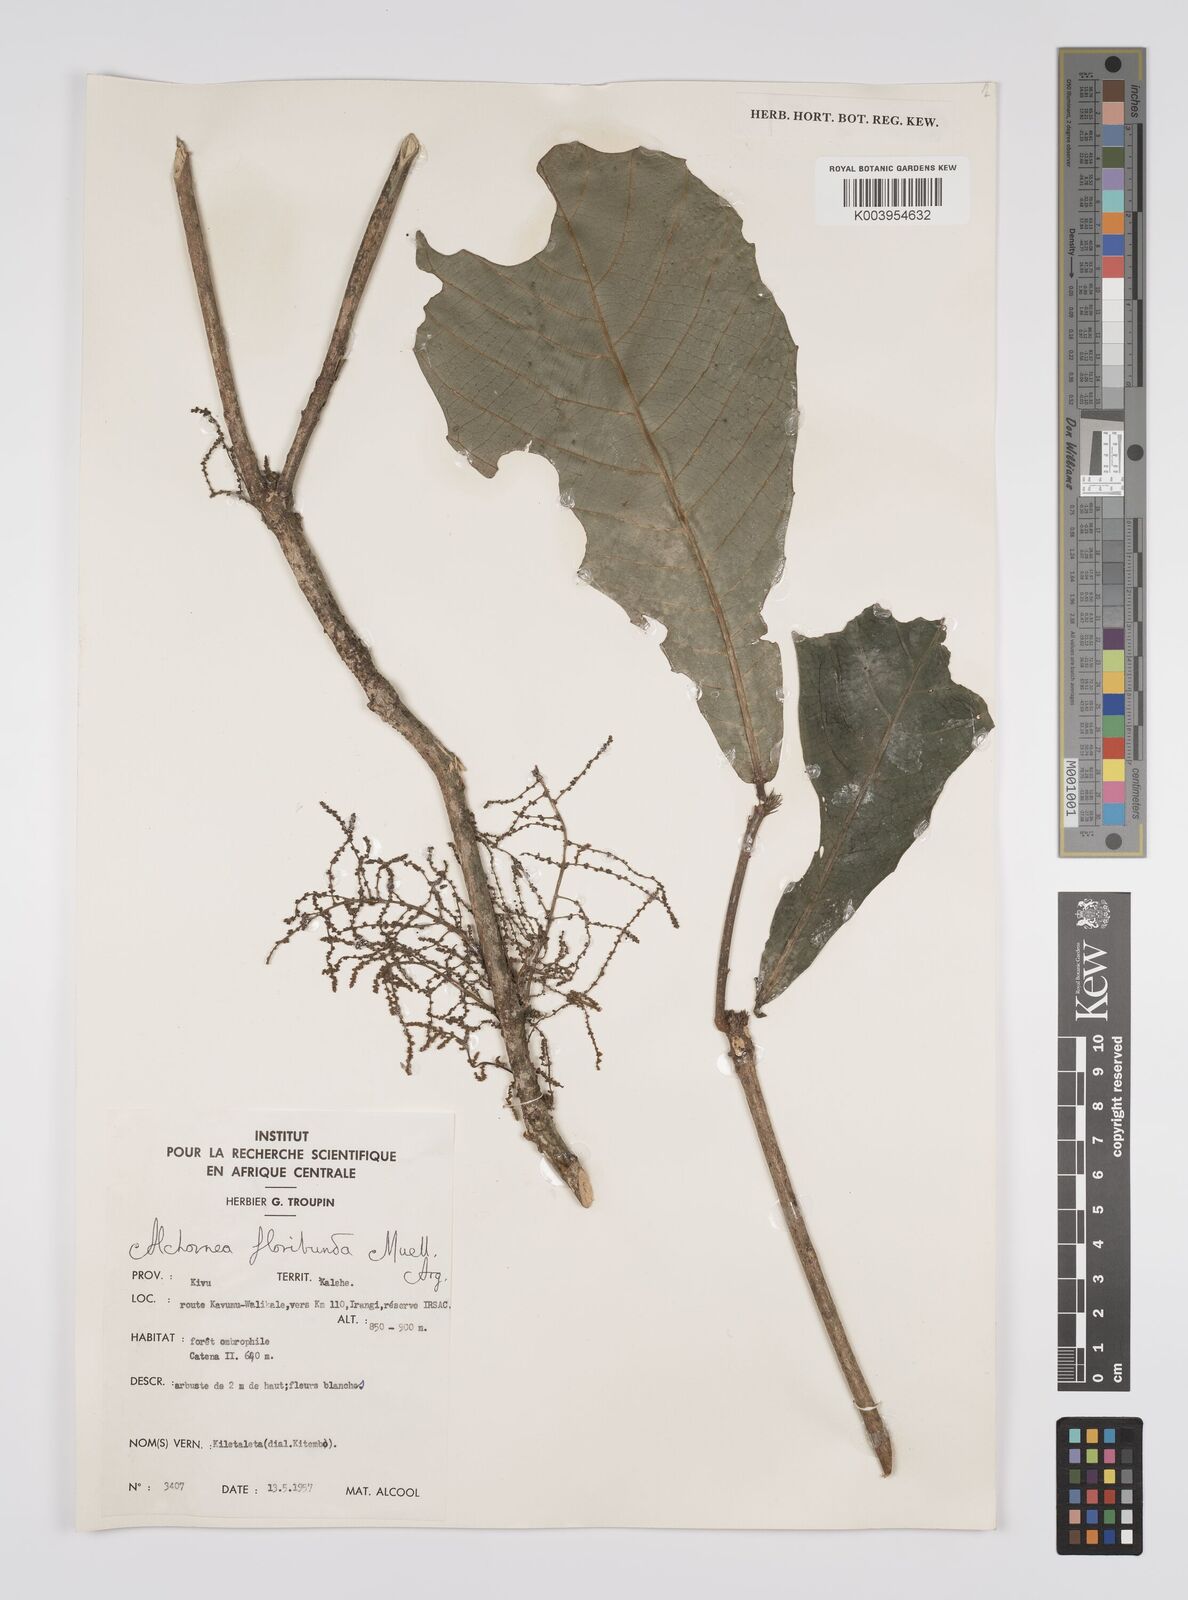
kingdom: Plantae
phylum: Tracheophyta
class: Magnoliopsida
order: Malpighiales
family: Euphorbiaceae
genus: Alchornea
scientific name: Alchornea floribunda
